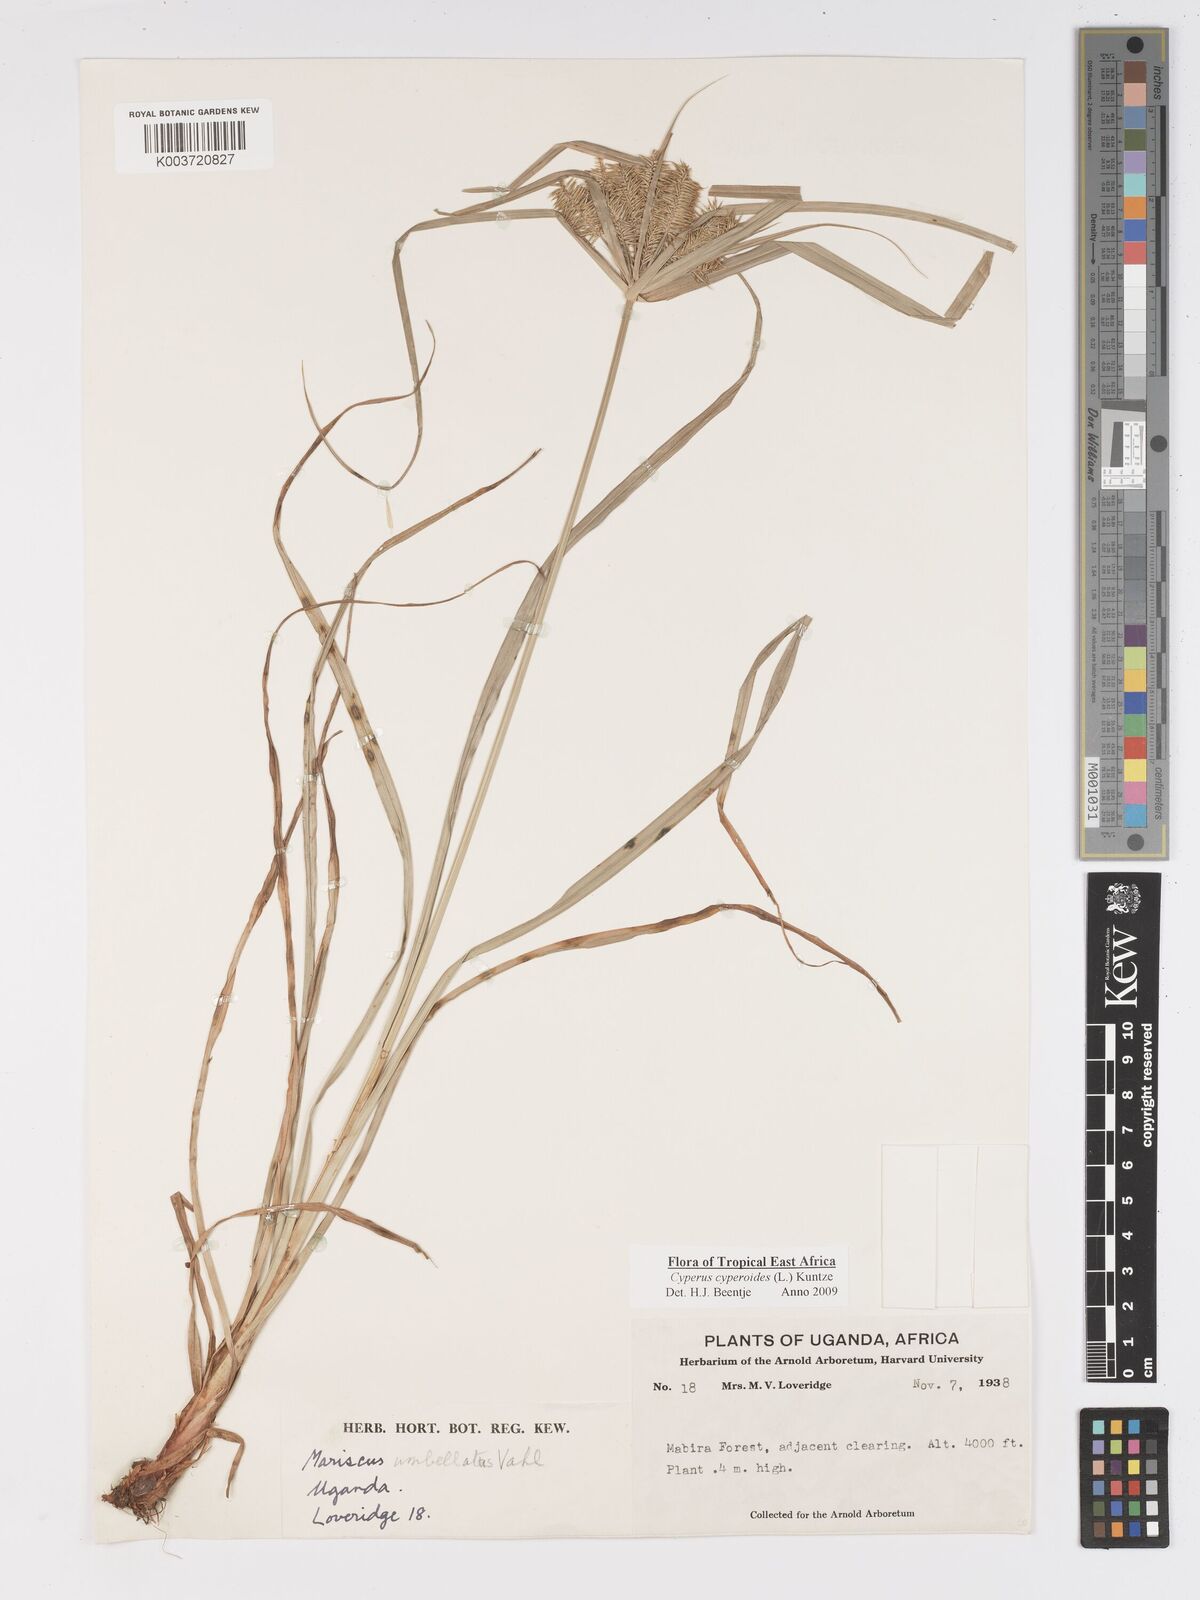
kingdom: Plantae
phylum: Tracheophyta
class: Liliopsida
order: Poales
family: Cyperaceae
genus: Cyperus
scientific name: Cyperus cyperoides
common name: Pacific island flat sedge
